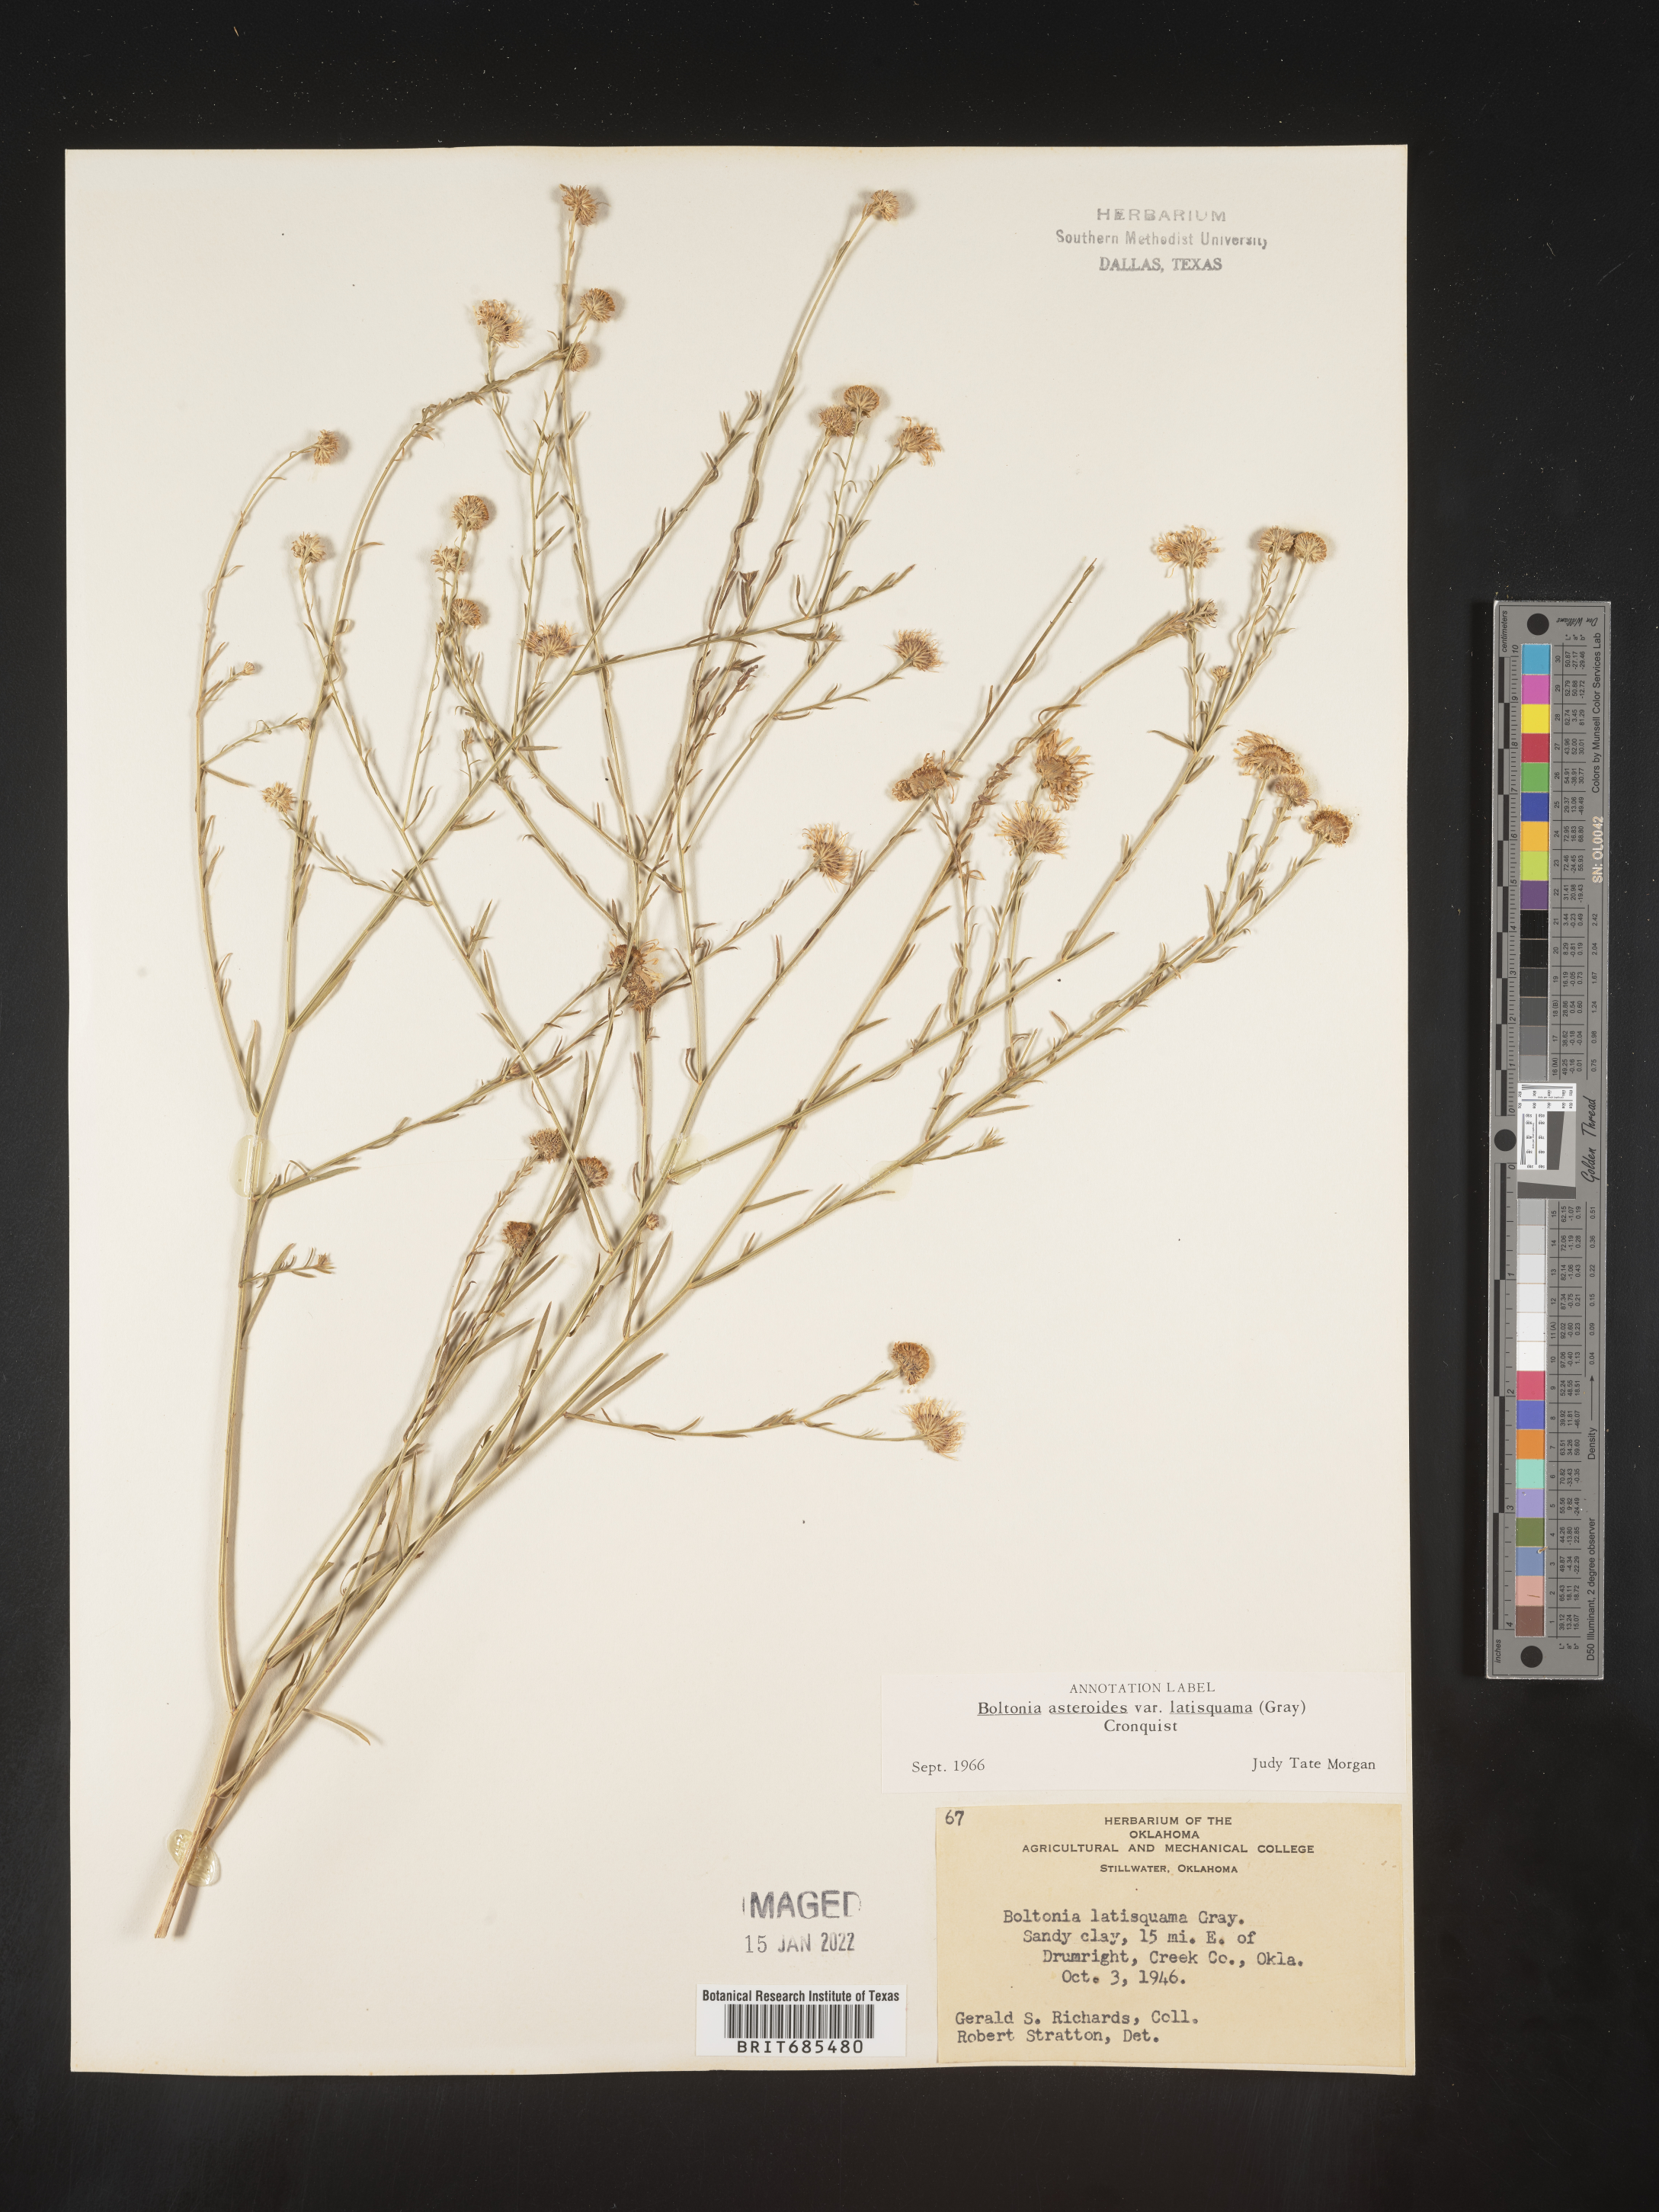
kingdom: Plantae
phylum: Tracheophyta
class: Magnoliopsida
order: Asterales
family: Asteraceae
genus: Boltonia
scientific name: Boltonia asteroides
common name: False chamomile
